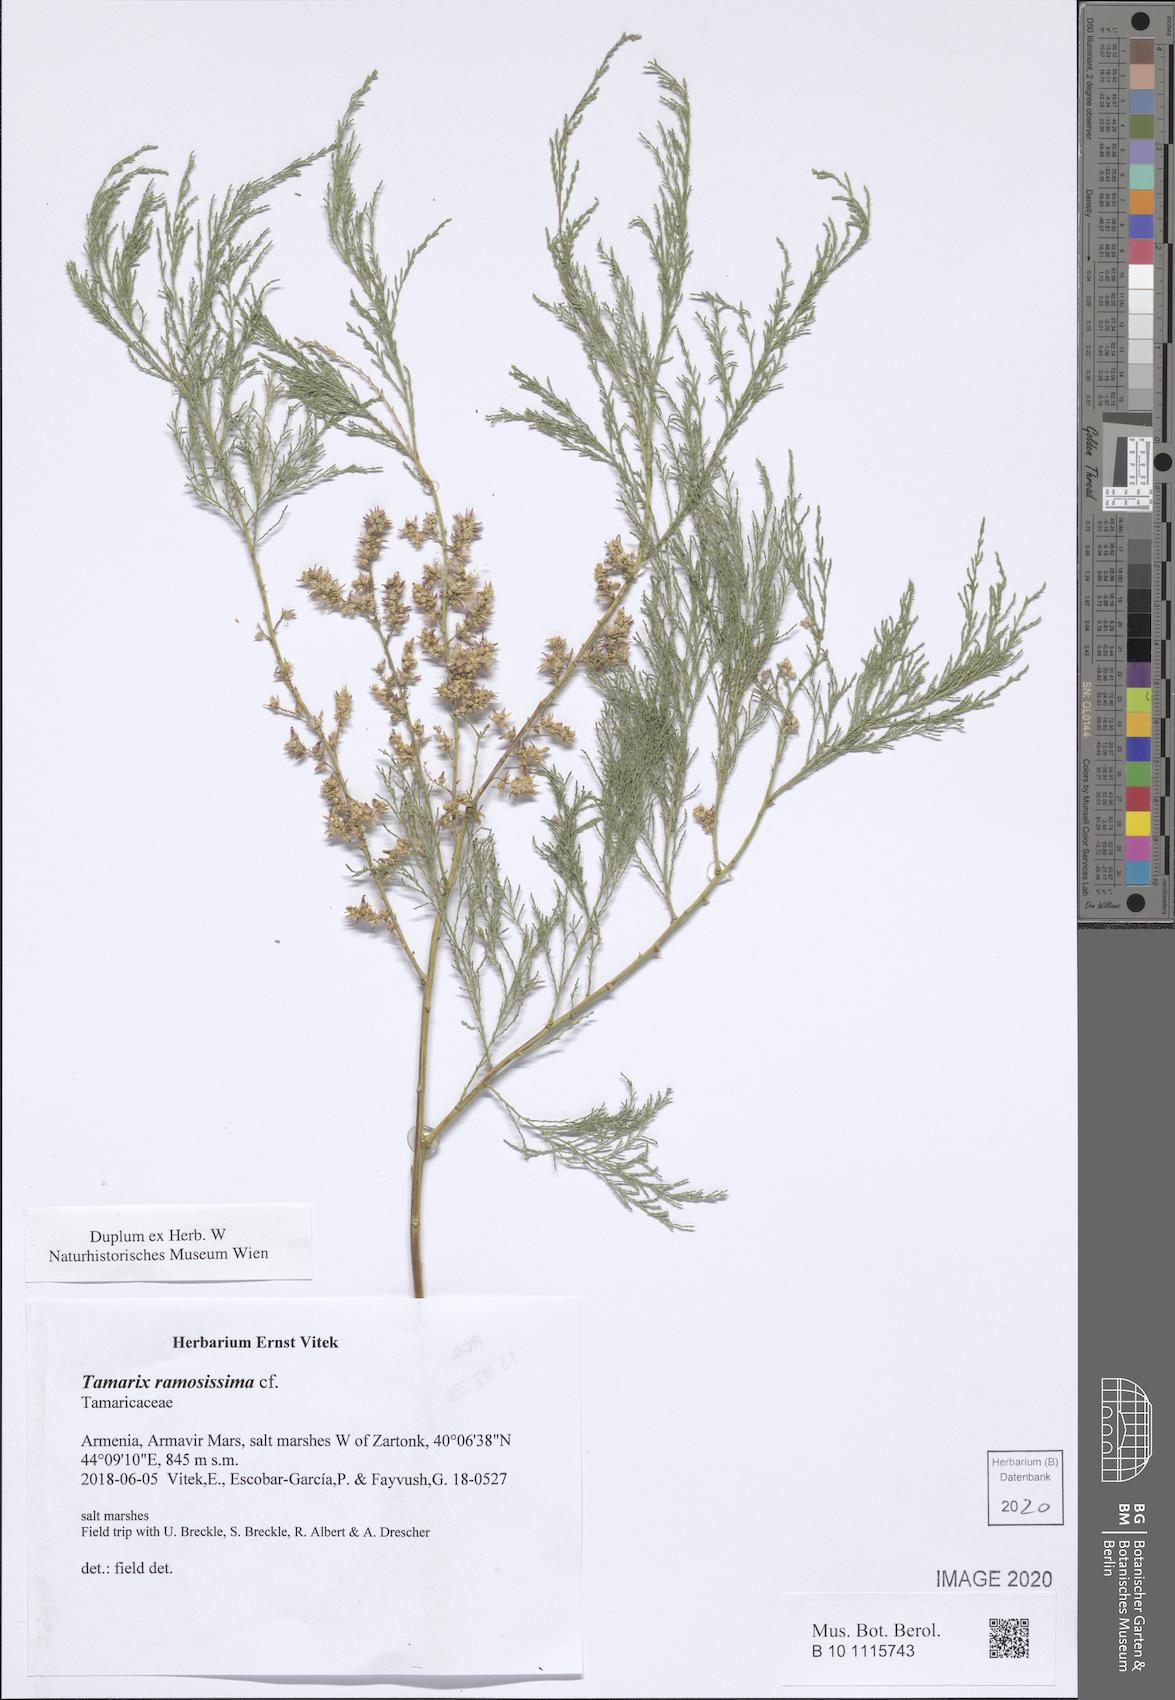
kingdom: Plantae
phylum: Tracheophyta
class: Magnoliopsida
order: Caryophyllales
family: Tamaricaceae
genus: Tamarix
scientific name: Tamarix ramosissima
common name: Pink tamarisk
